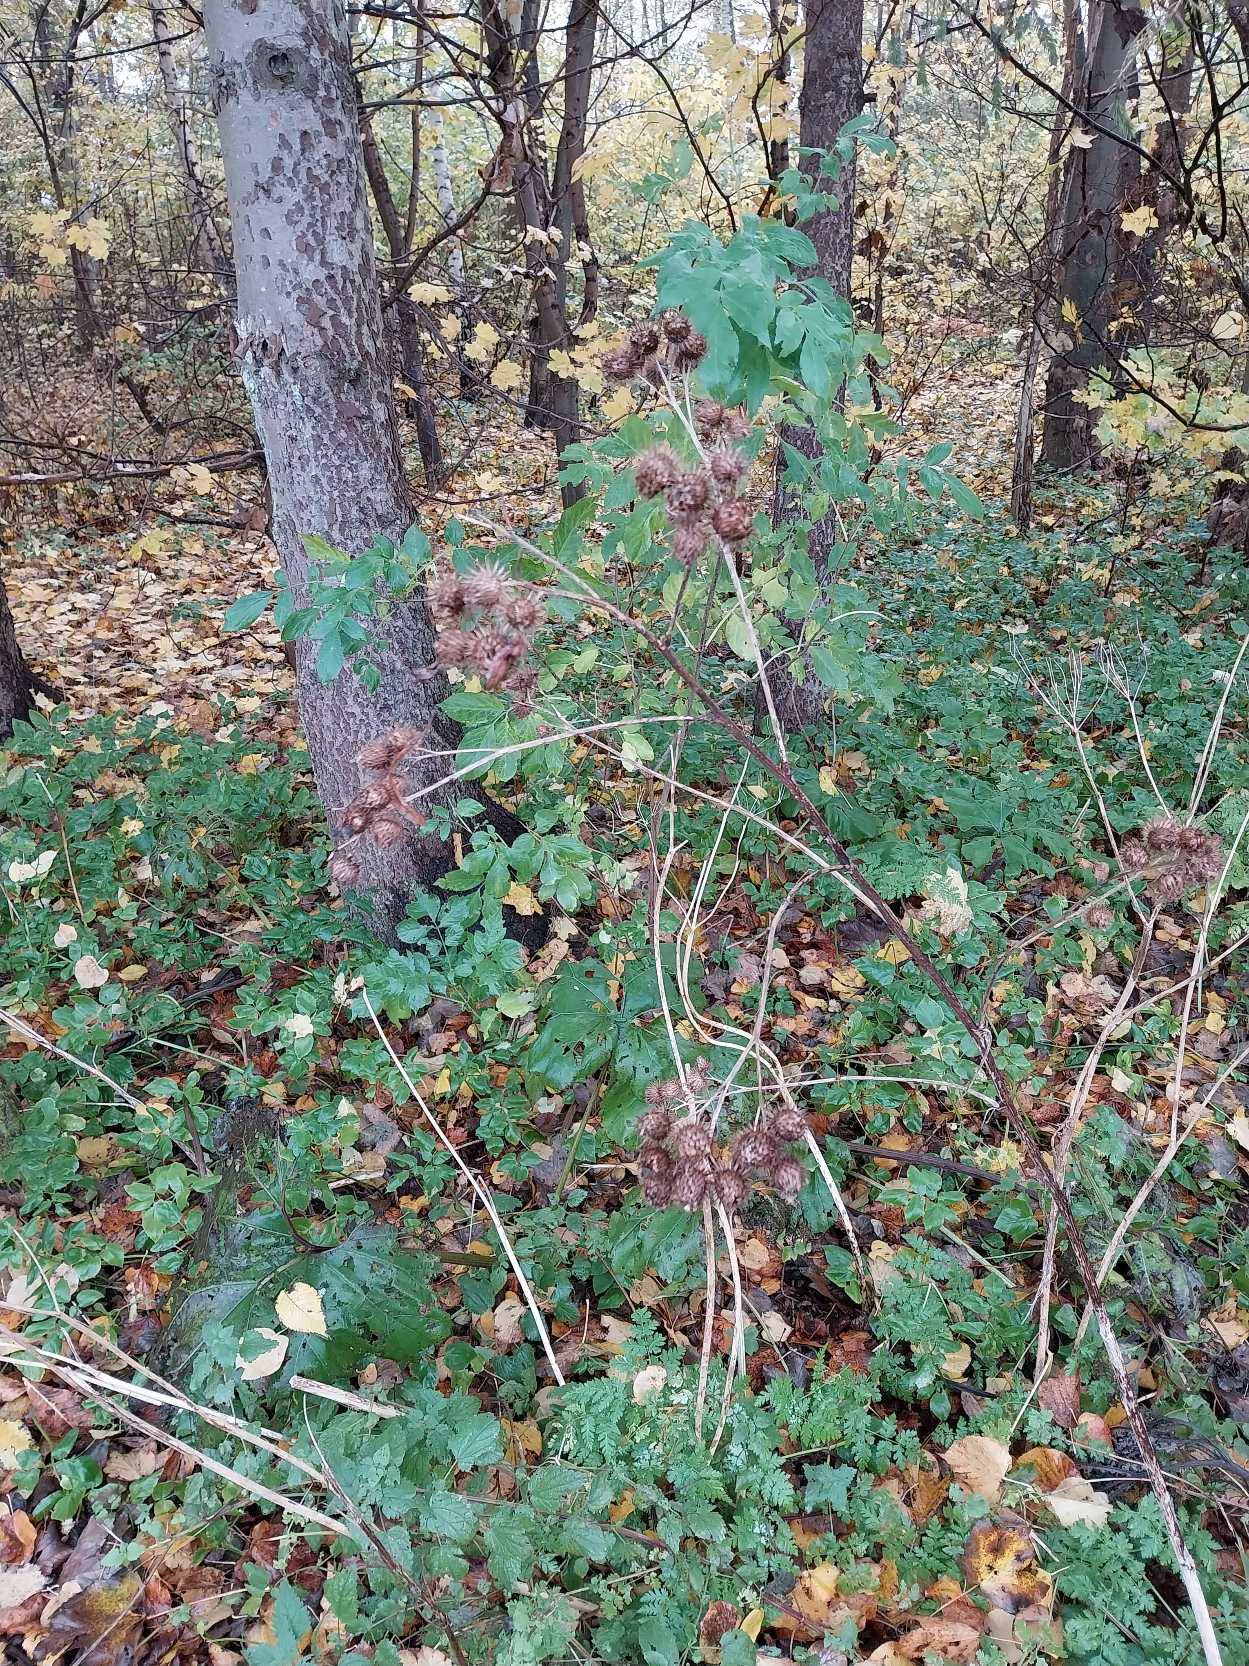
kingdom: Plantae
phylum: Tracheophyta
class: Magnoliopsida
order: Asterales
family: Asteraceae
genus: Arctium
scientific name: Arctium tomentosum
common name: Filtet burre
